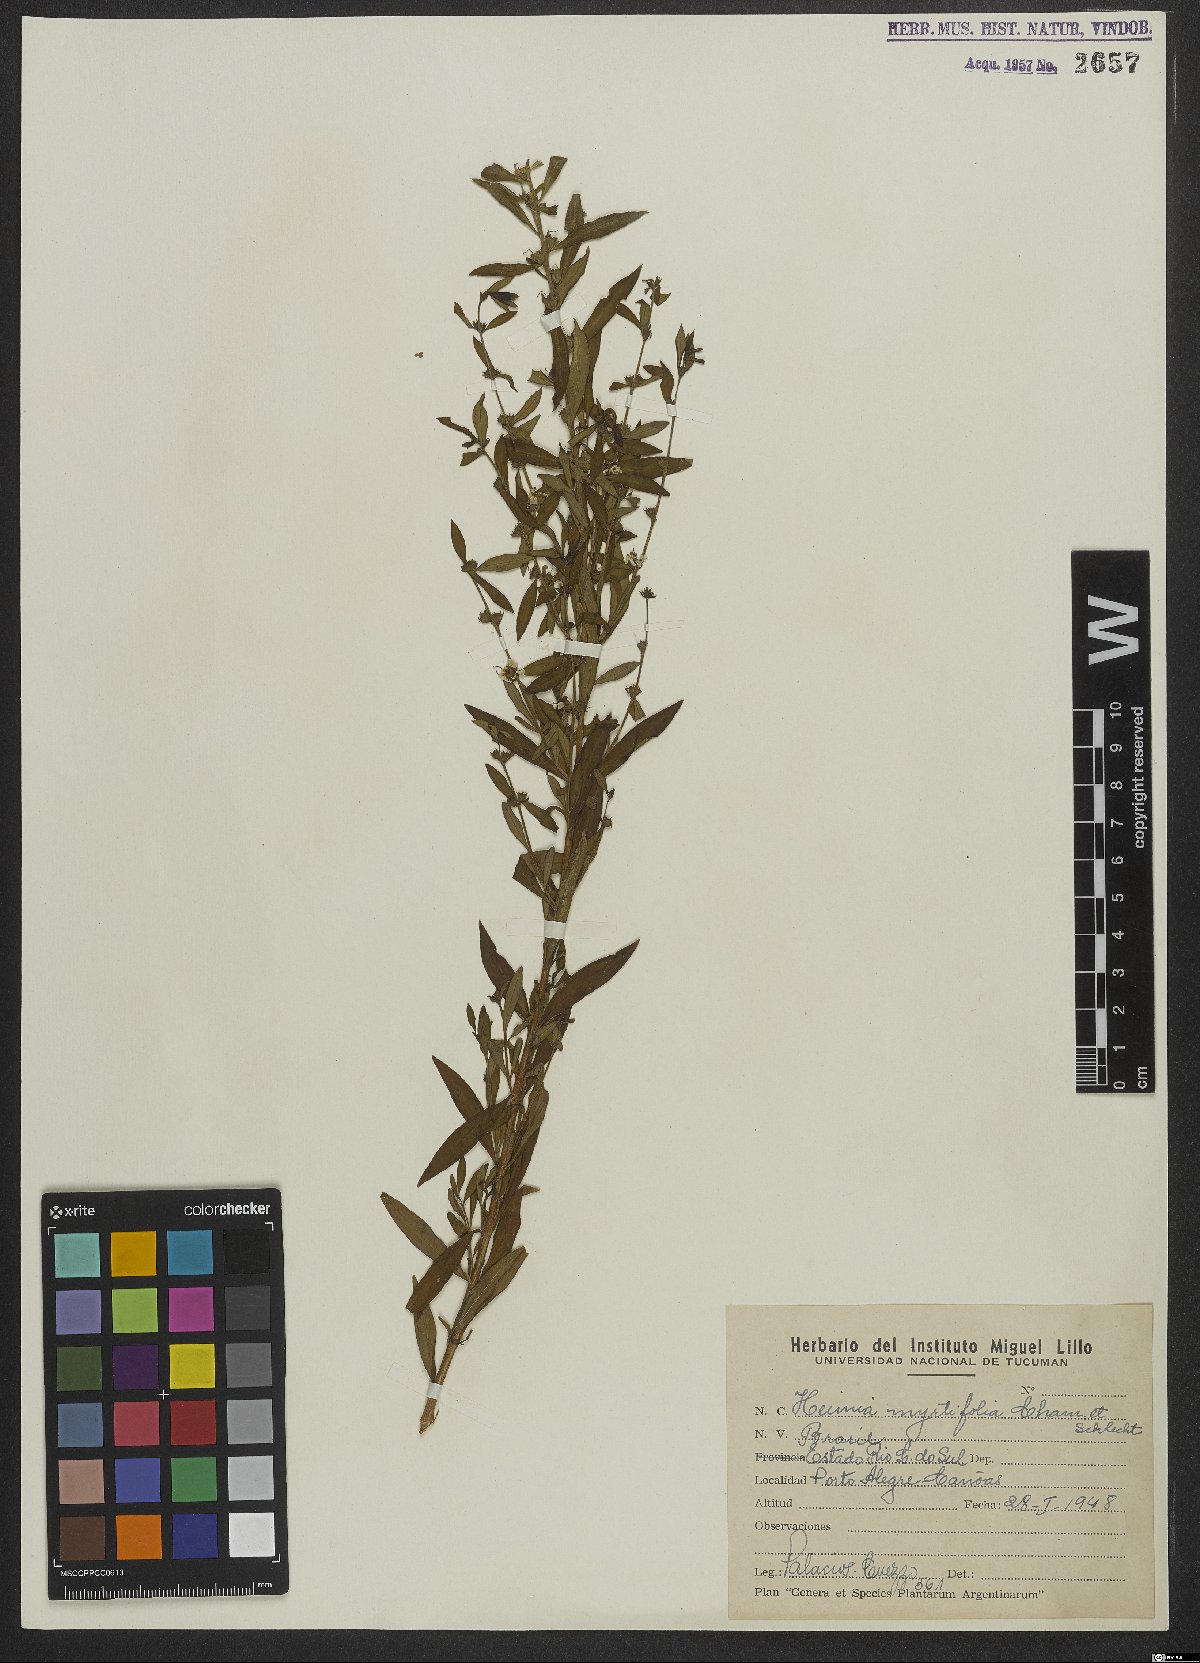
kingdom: Plantae
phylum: Tracheophyta
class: Magnoliopsida
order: Myrtales
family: Lythraceae
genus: Heimia
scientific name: Heimia apetala
